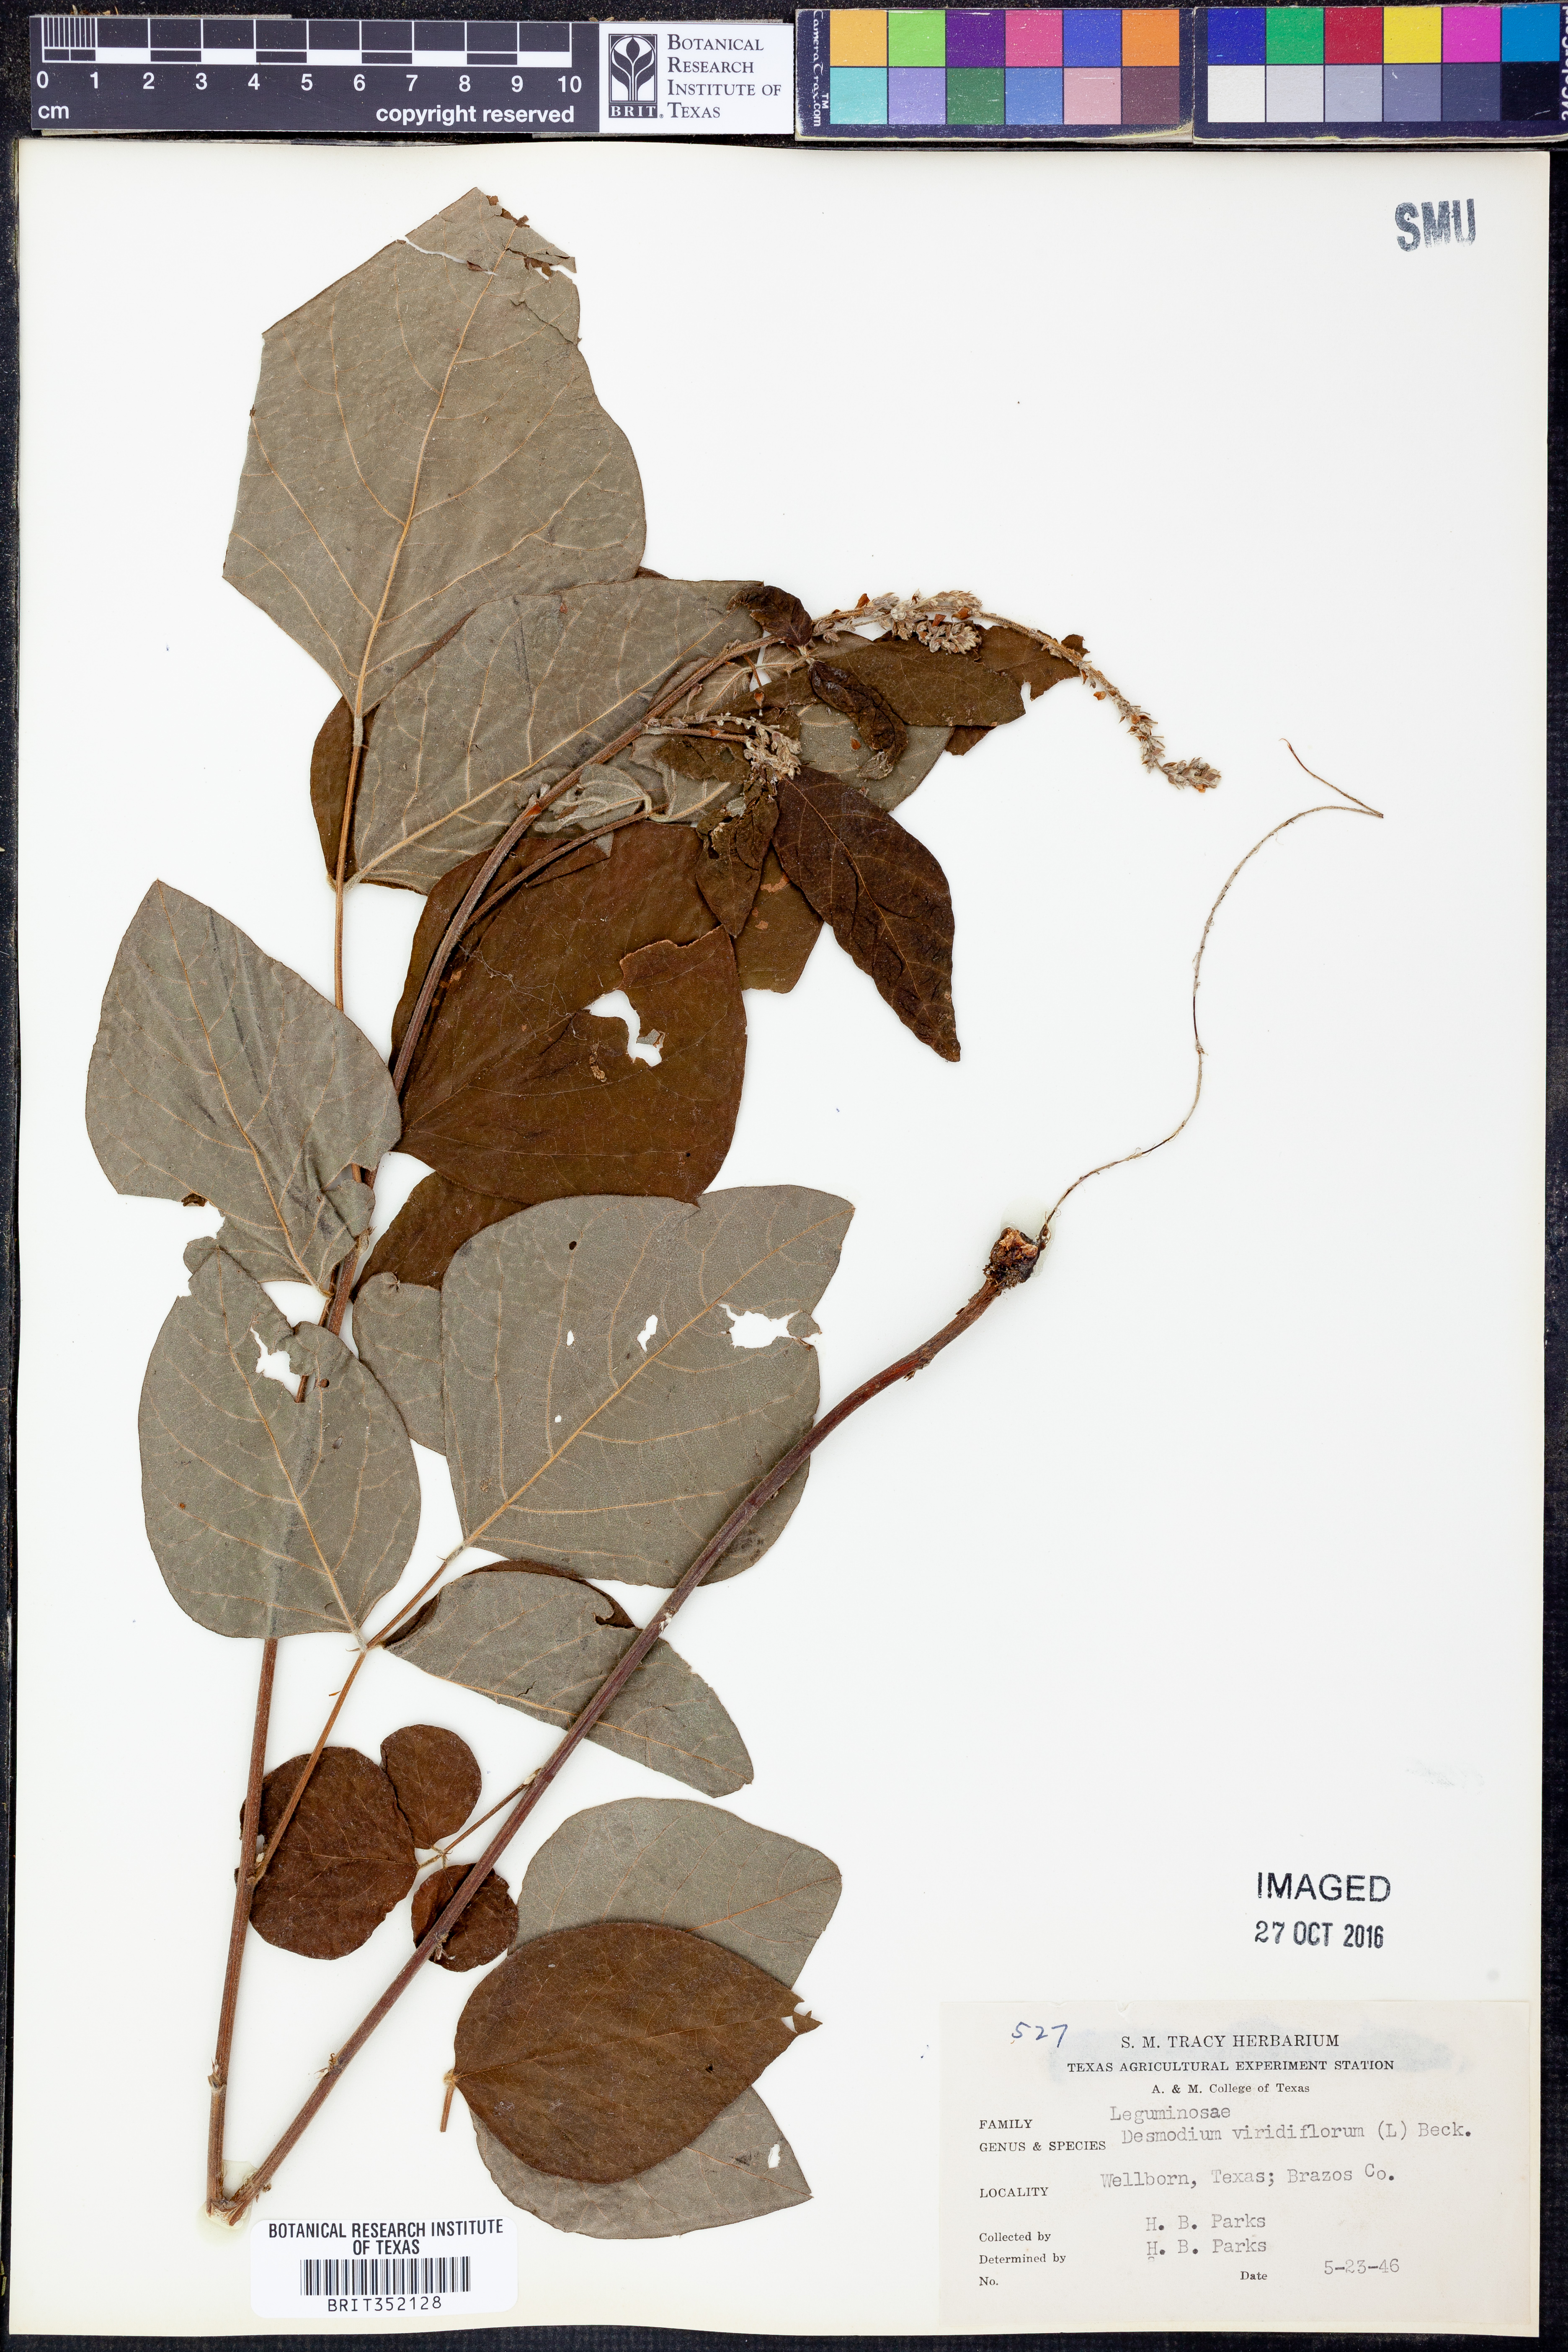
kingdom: Plantae
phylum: Tracheophyta
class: Magnoliopsida
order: Fabales
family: Fabaceae
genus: Desmodium
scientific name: Desmodium viridiflorum
